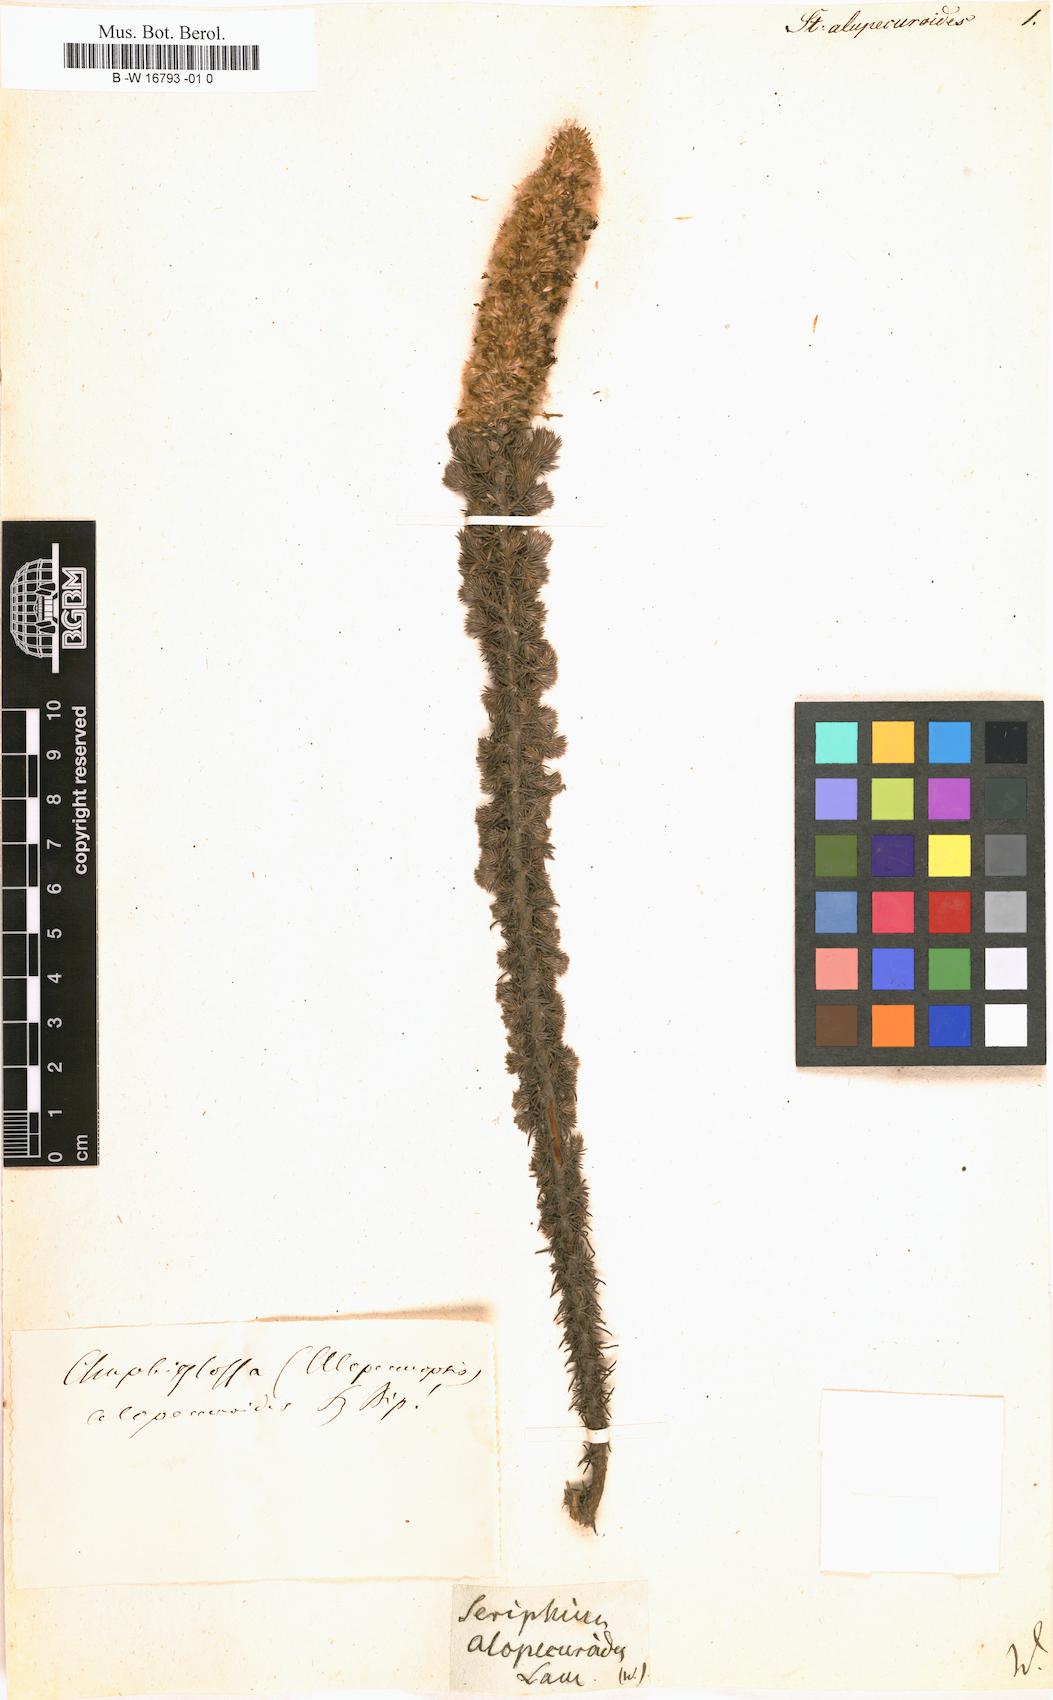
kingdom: Plantae
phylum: Tracheophyta
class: Magnoliopsida
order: Asterales
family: Asteraceae
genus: Stoebe
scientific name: Stoebe alopecuroides
